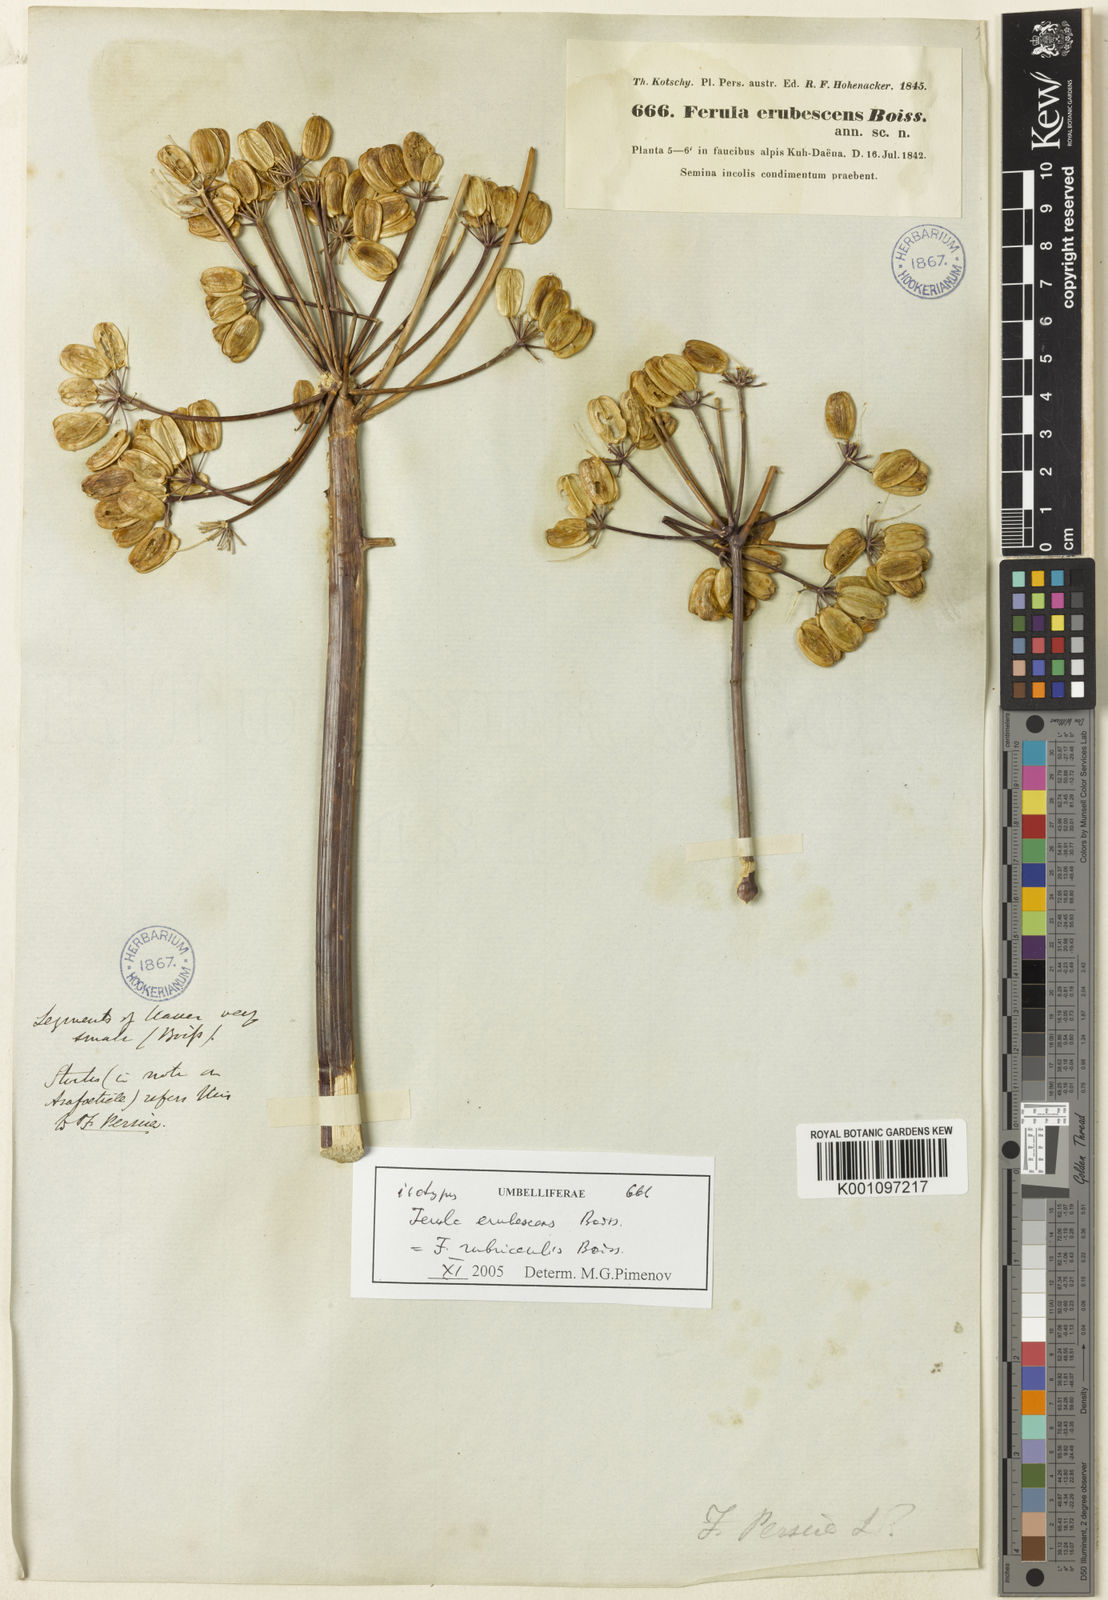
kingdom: Plantae
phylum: Tracheophyta
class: Magnoliopsida
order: Apiales
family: Apiaceae
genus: Ferula
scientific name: Ferula rubricaulis
